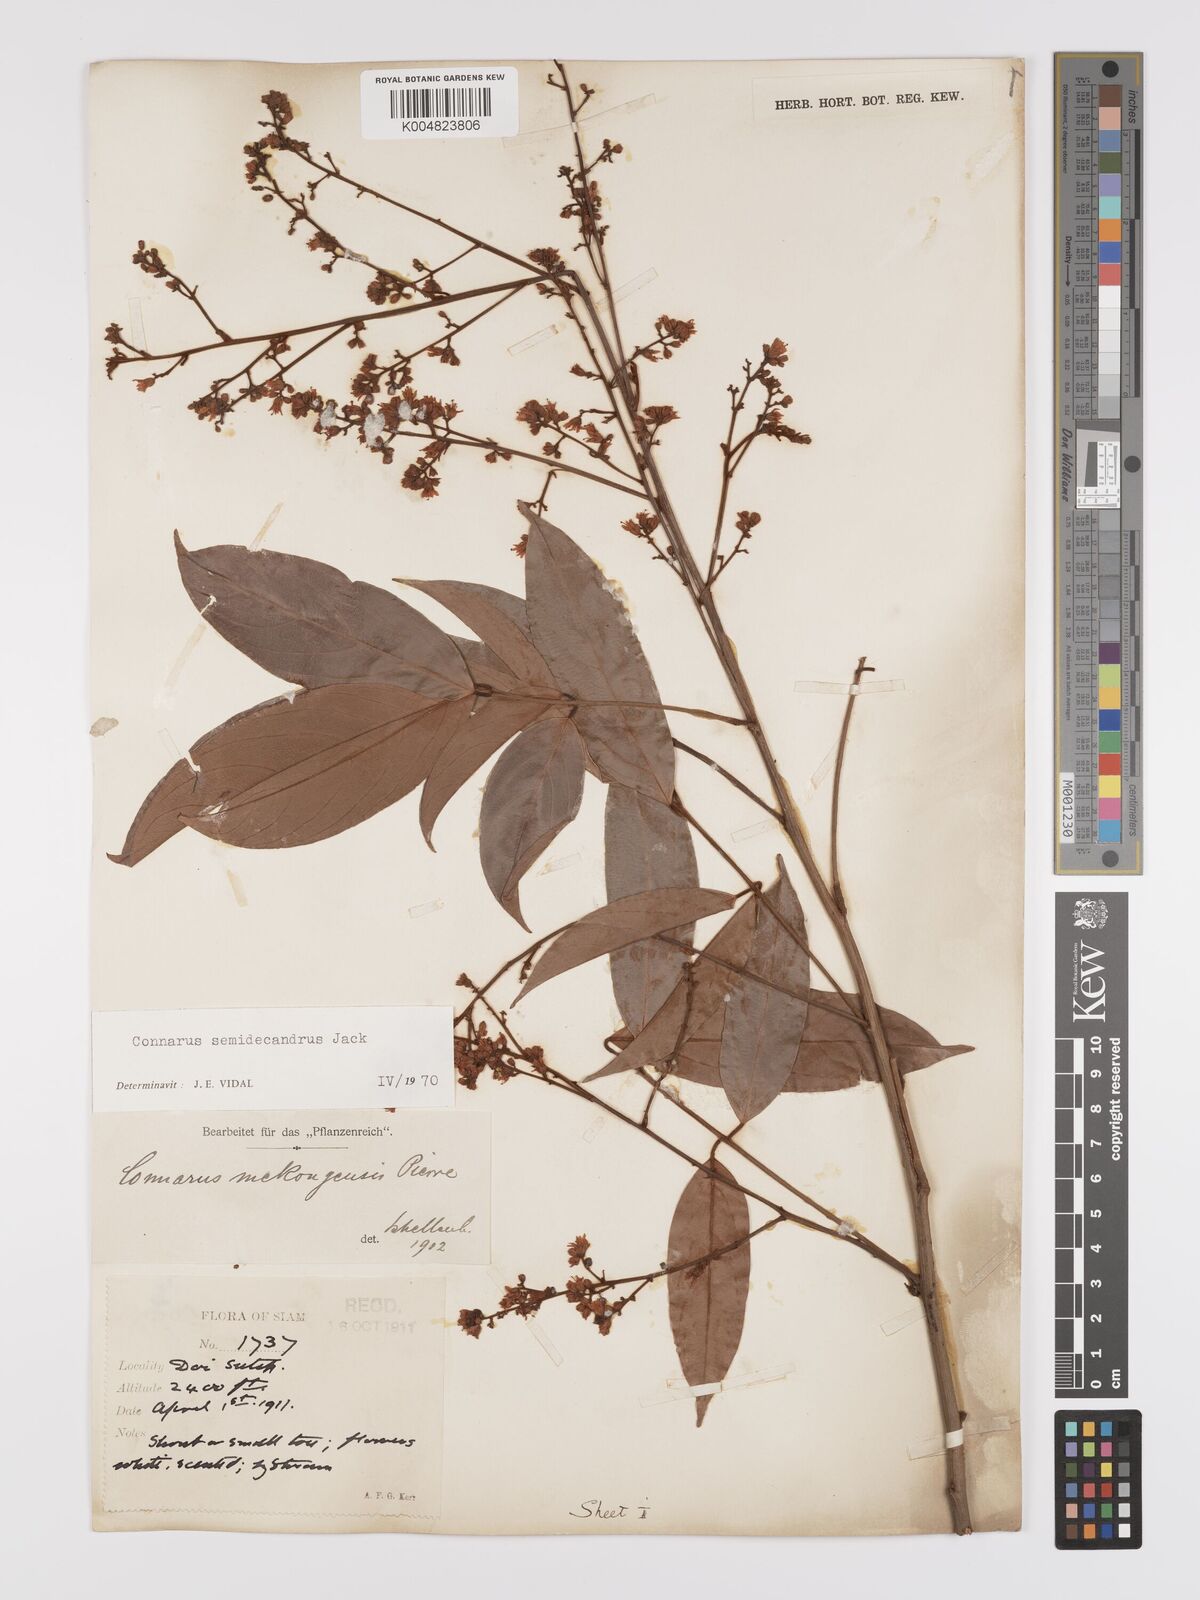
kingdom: Plantae
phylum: Tracheophyta
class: Magnoliopsida
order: Oxalidales
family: Connaraceae
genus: Connarus
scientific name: Connarus semidecandrus
